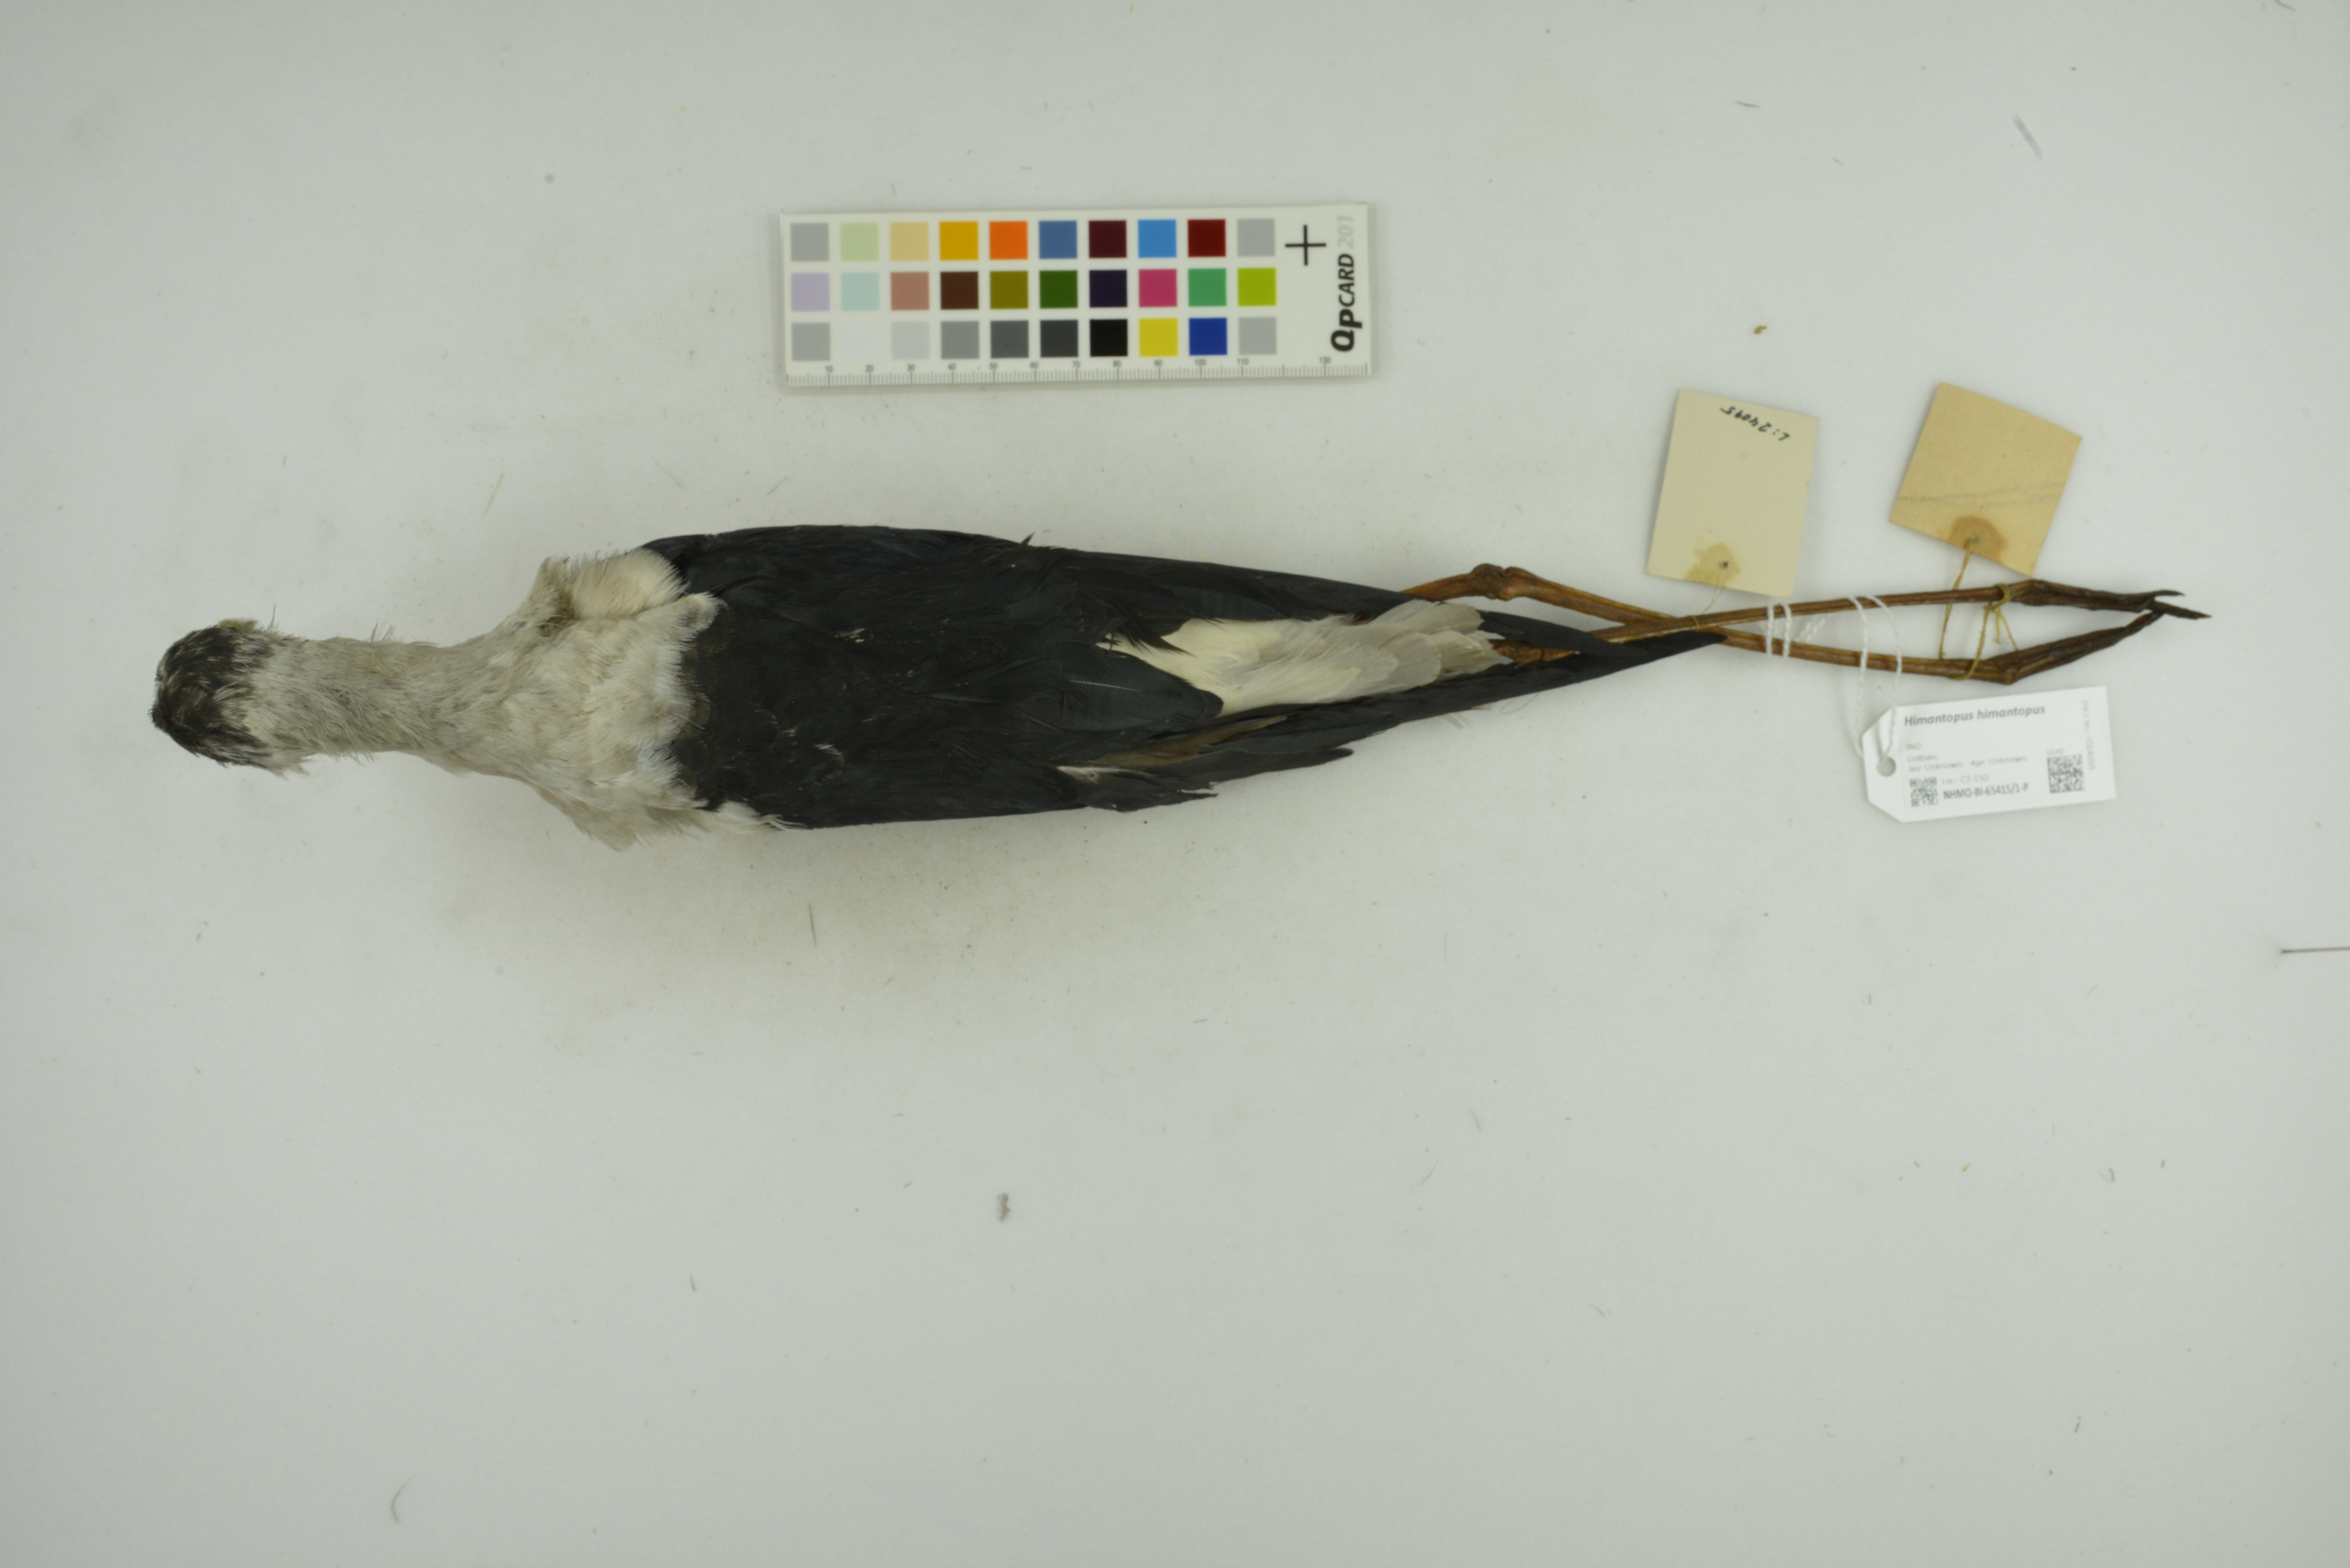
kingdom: Animalia
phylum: Chordata
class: Aves
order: Charadriiformes
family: Recurvirostridae
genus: Himantopus
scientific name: Himantopus himantopus
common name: Black-winged stilt
